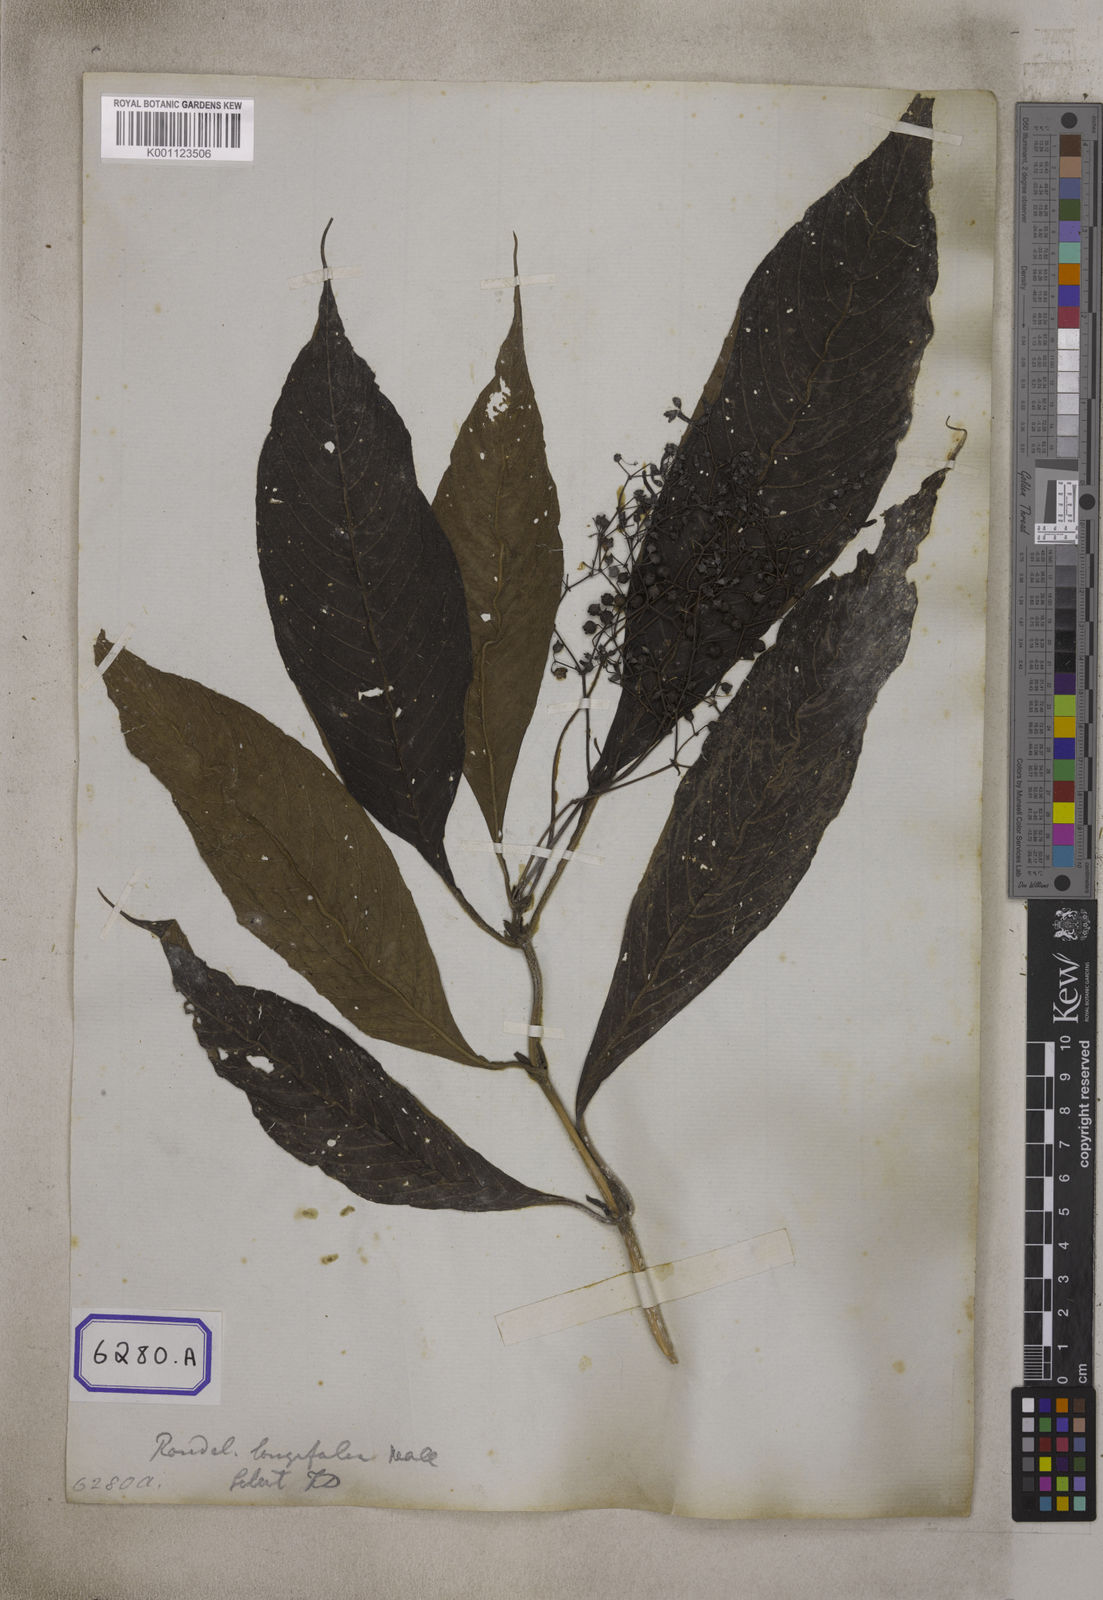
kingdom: Plantae
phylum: Tracheophyta
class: Magnoliopsida
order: Gentianales
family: Rubiaceae
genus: Adenosacme
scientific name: Adenosacme
